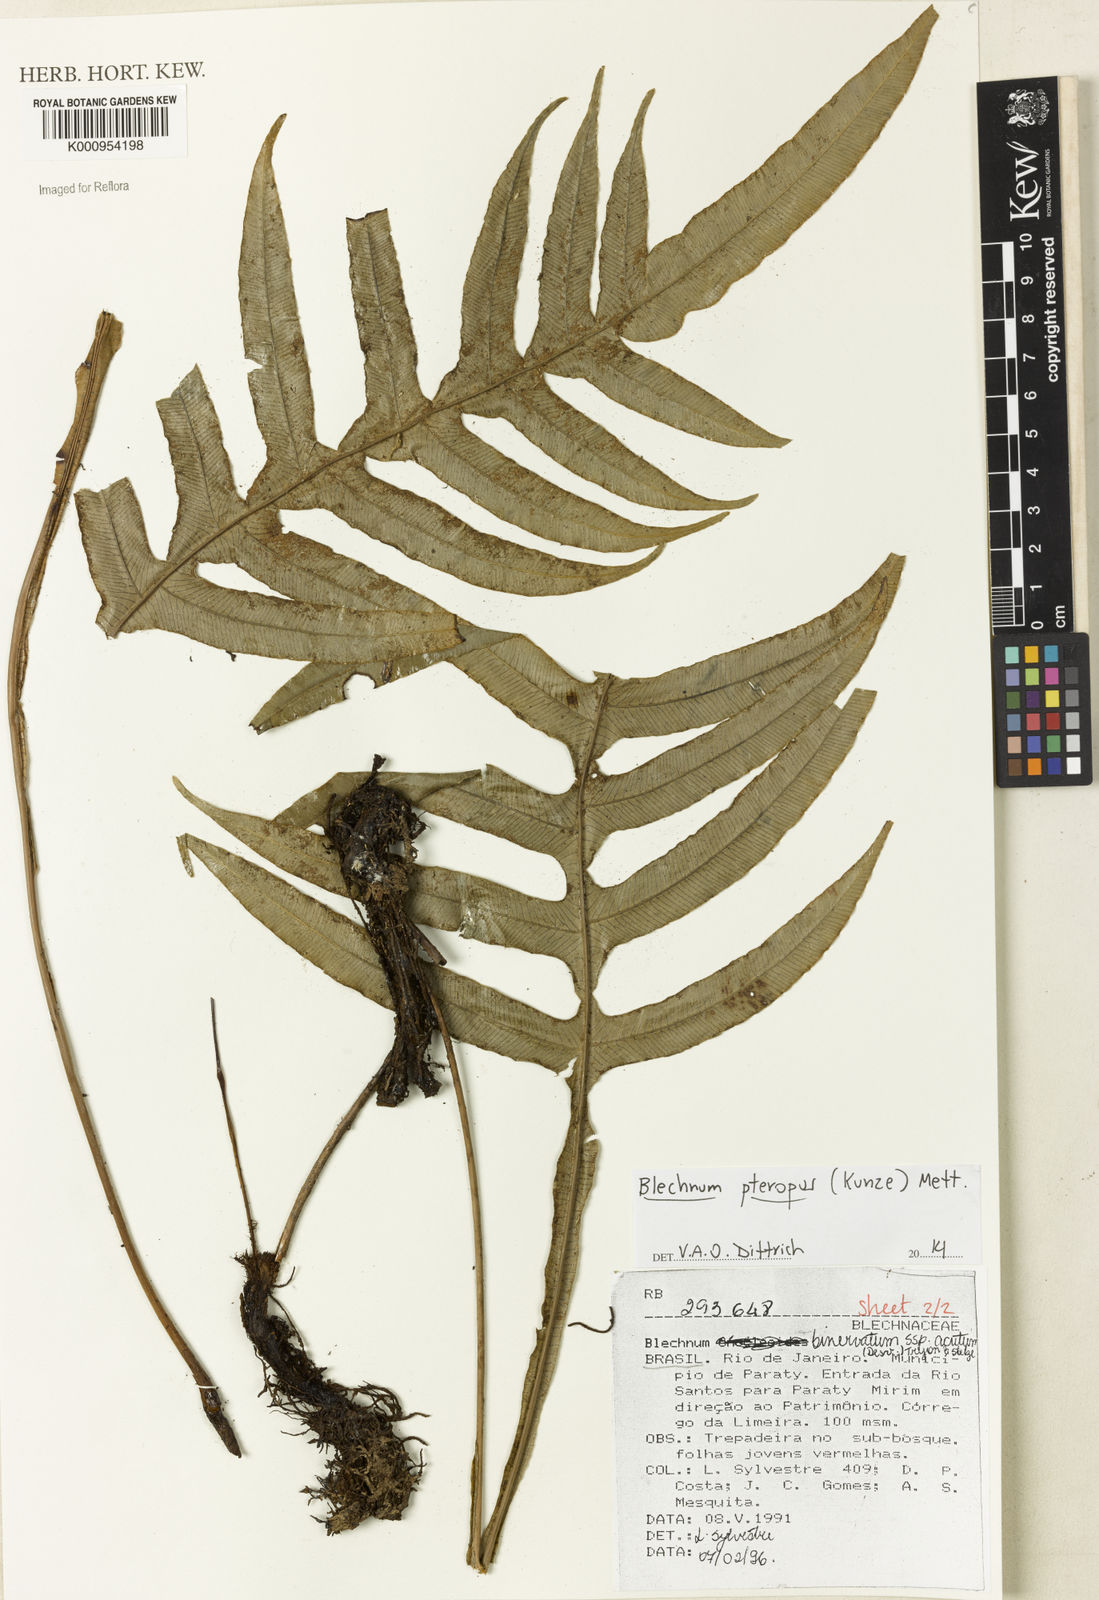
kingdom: Plantae
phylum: Tracheophyta
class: Polypodiopsida
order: Polypodiales
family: Blechnaceae
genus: Lomaridium
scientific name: Lomaridium acutum
